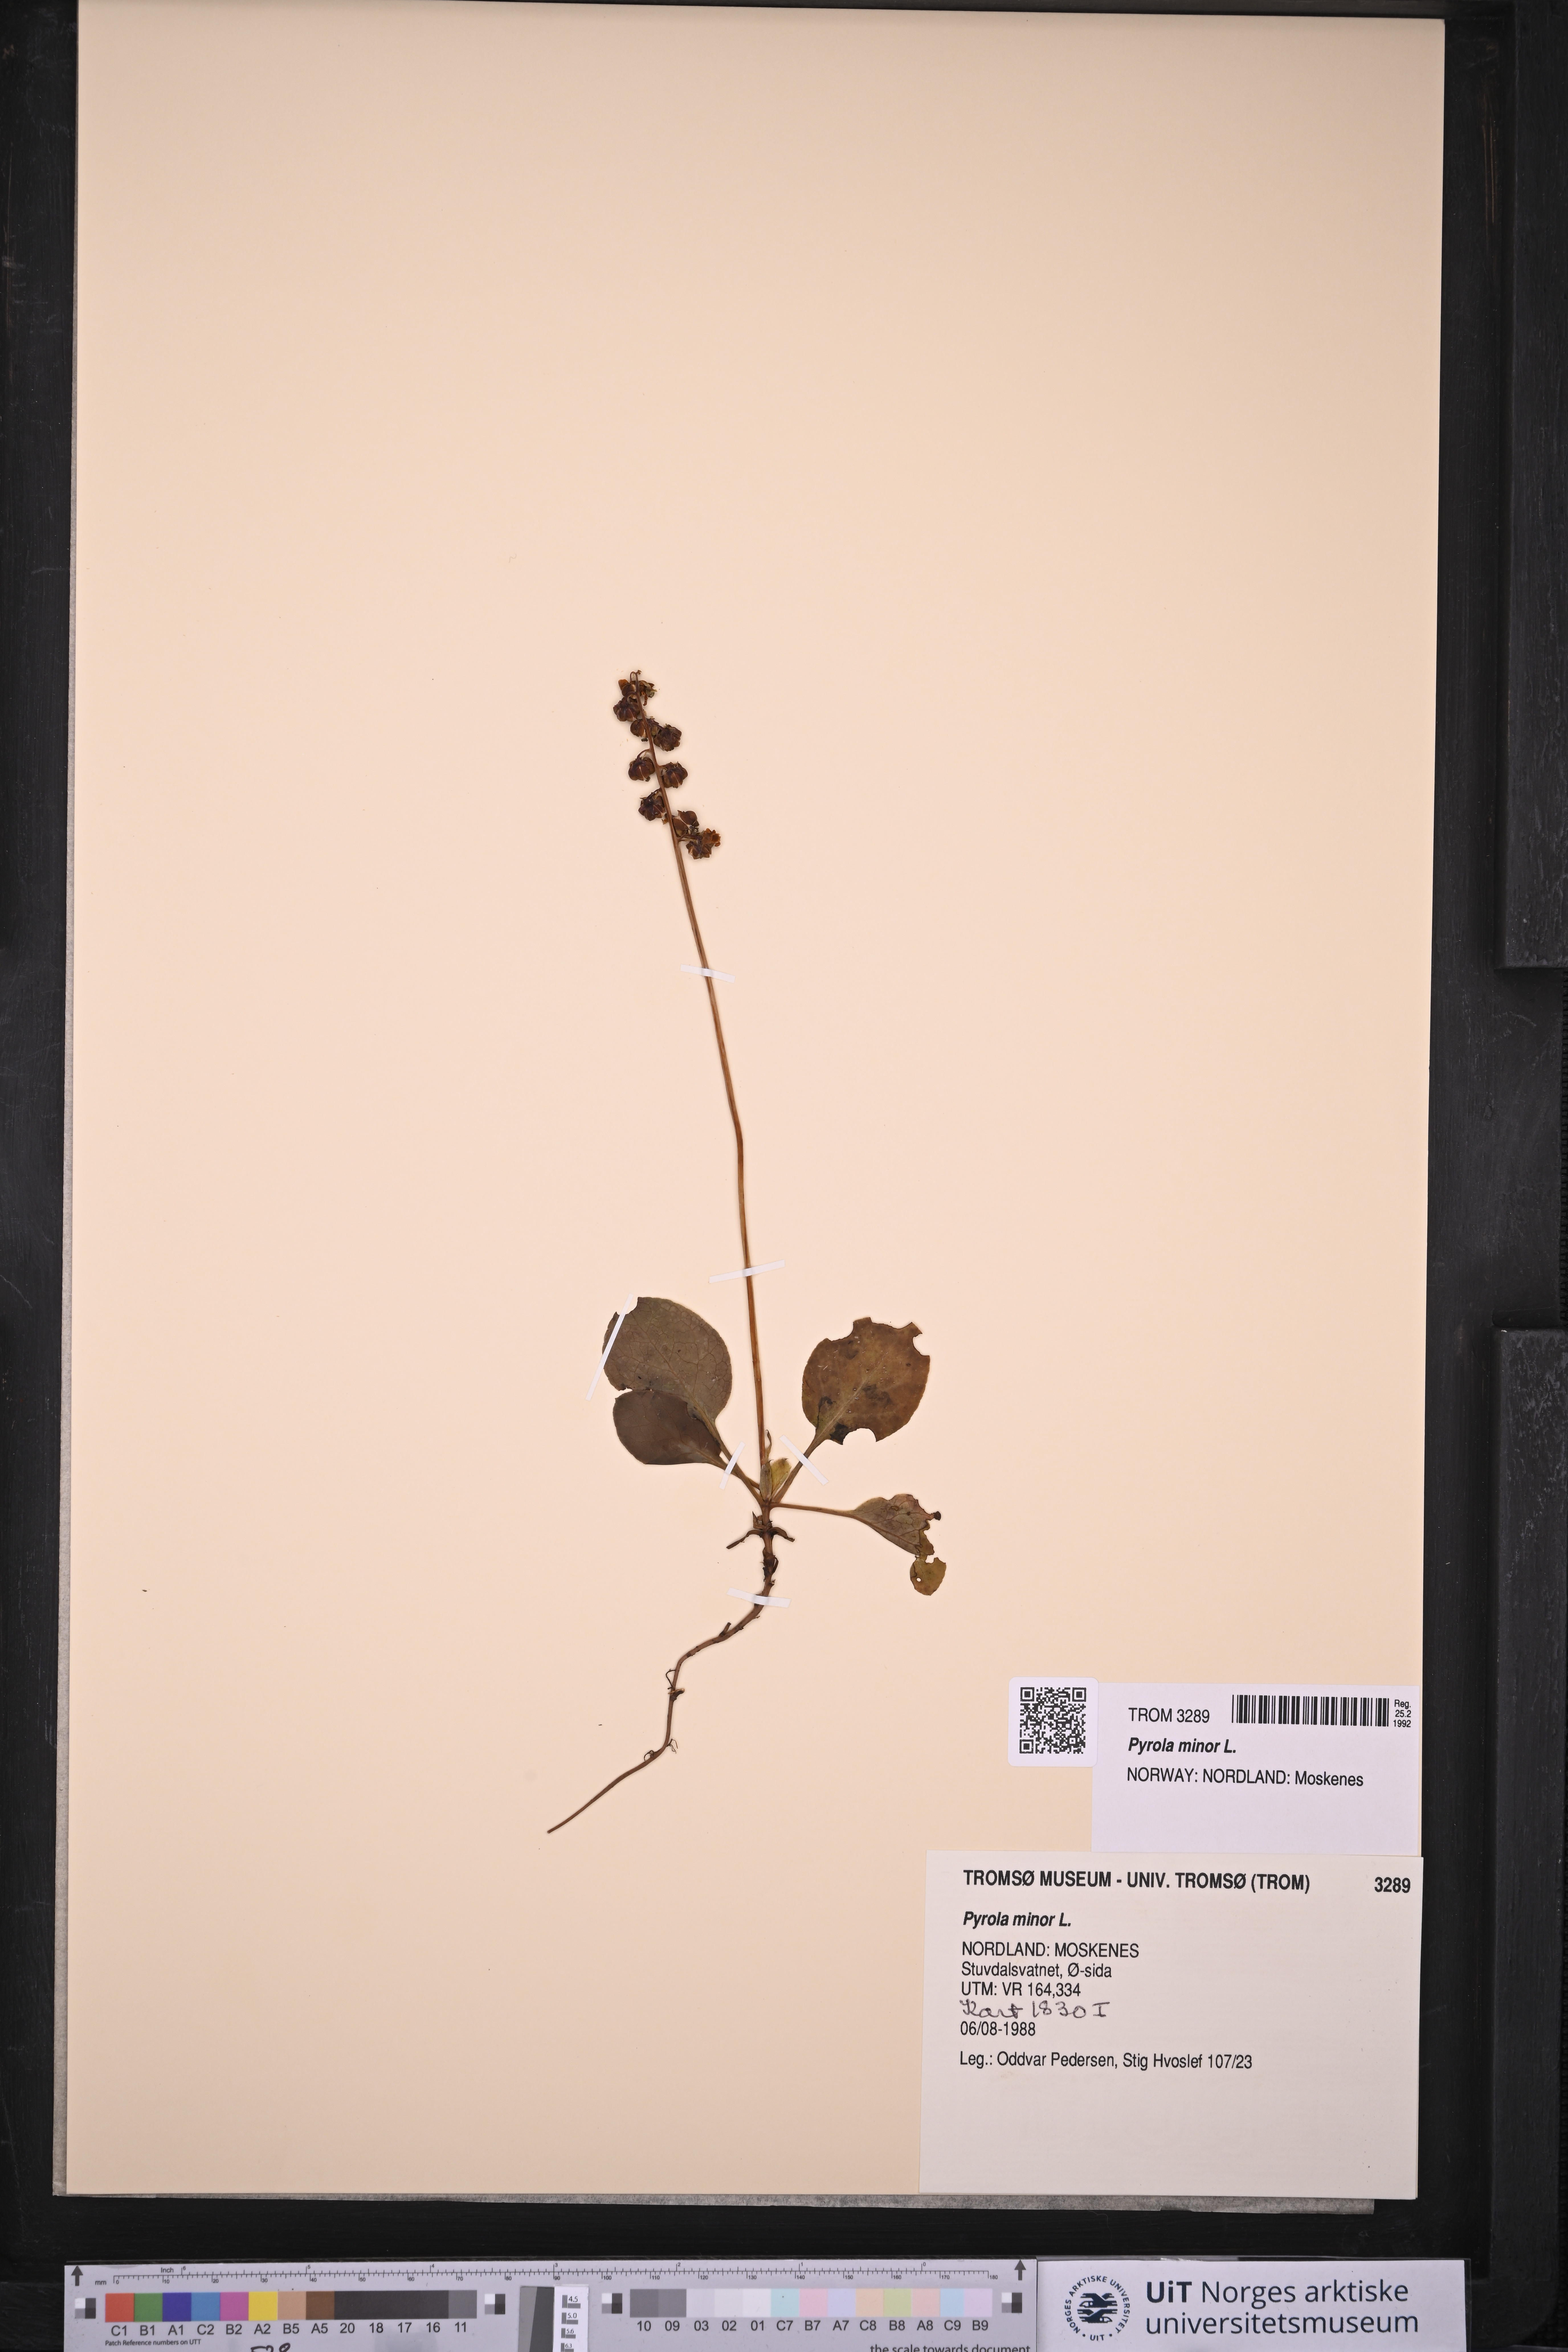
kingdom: Plantae
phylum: Tracheophyta
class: Magnoliopsida
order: Ericales
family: Ericaceae
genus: Pyrola
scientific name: Pyrola minor
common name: Common wintergreen
